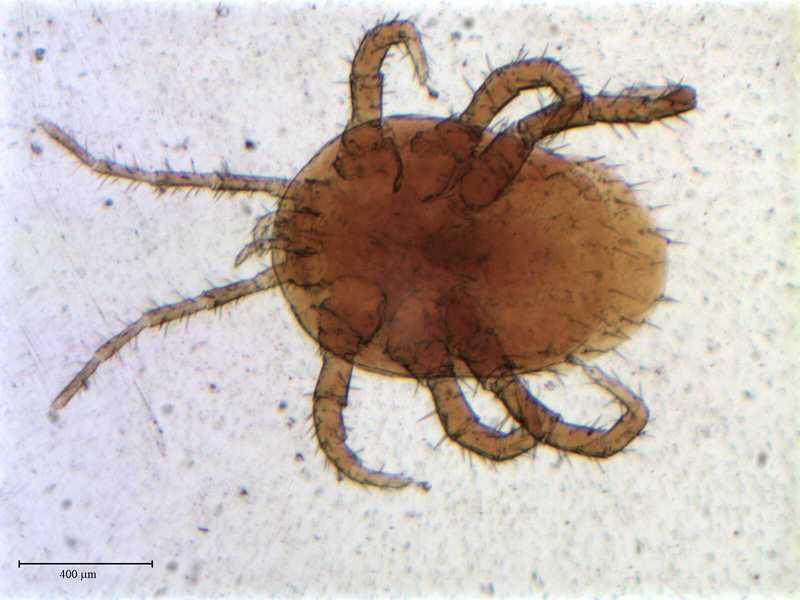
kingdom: Animalia
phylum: Arthropoda
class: Arachnida
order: Mesostigmata
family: Laelapidae
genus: Meliponaspis
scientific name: Meliponaspis
